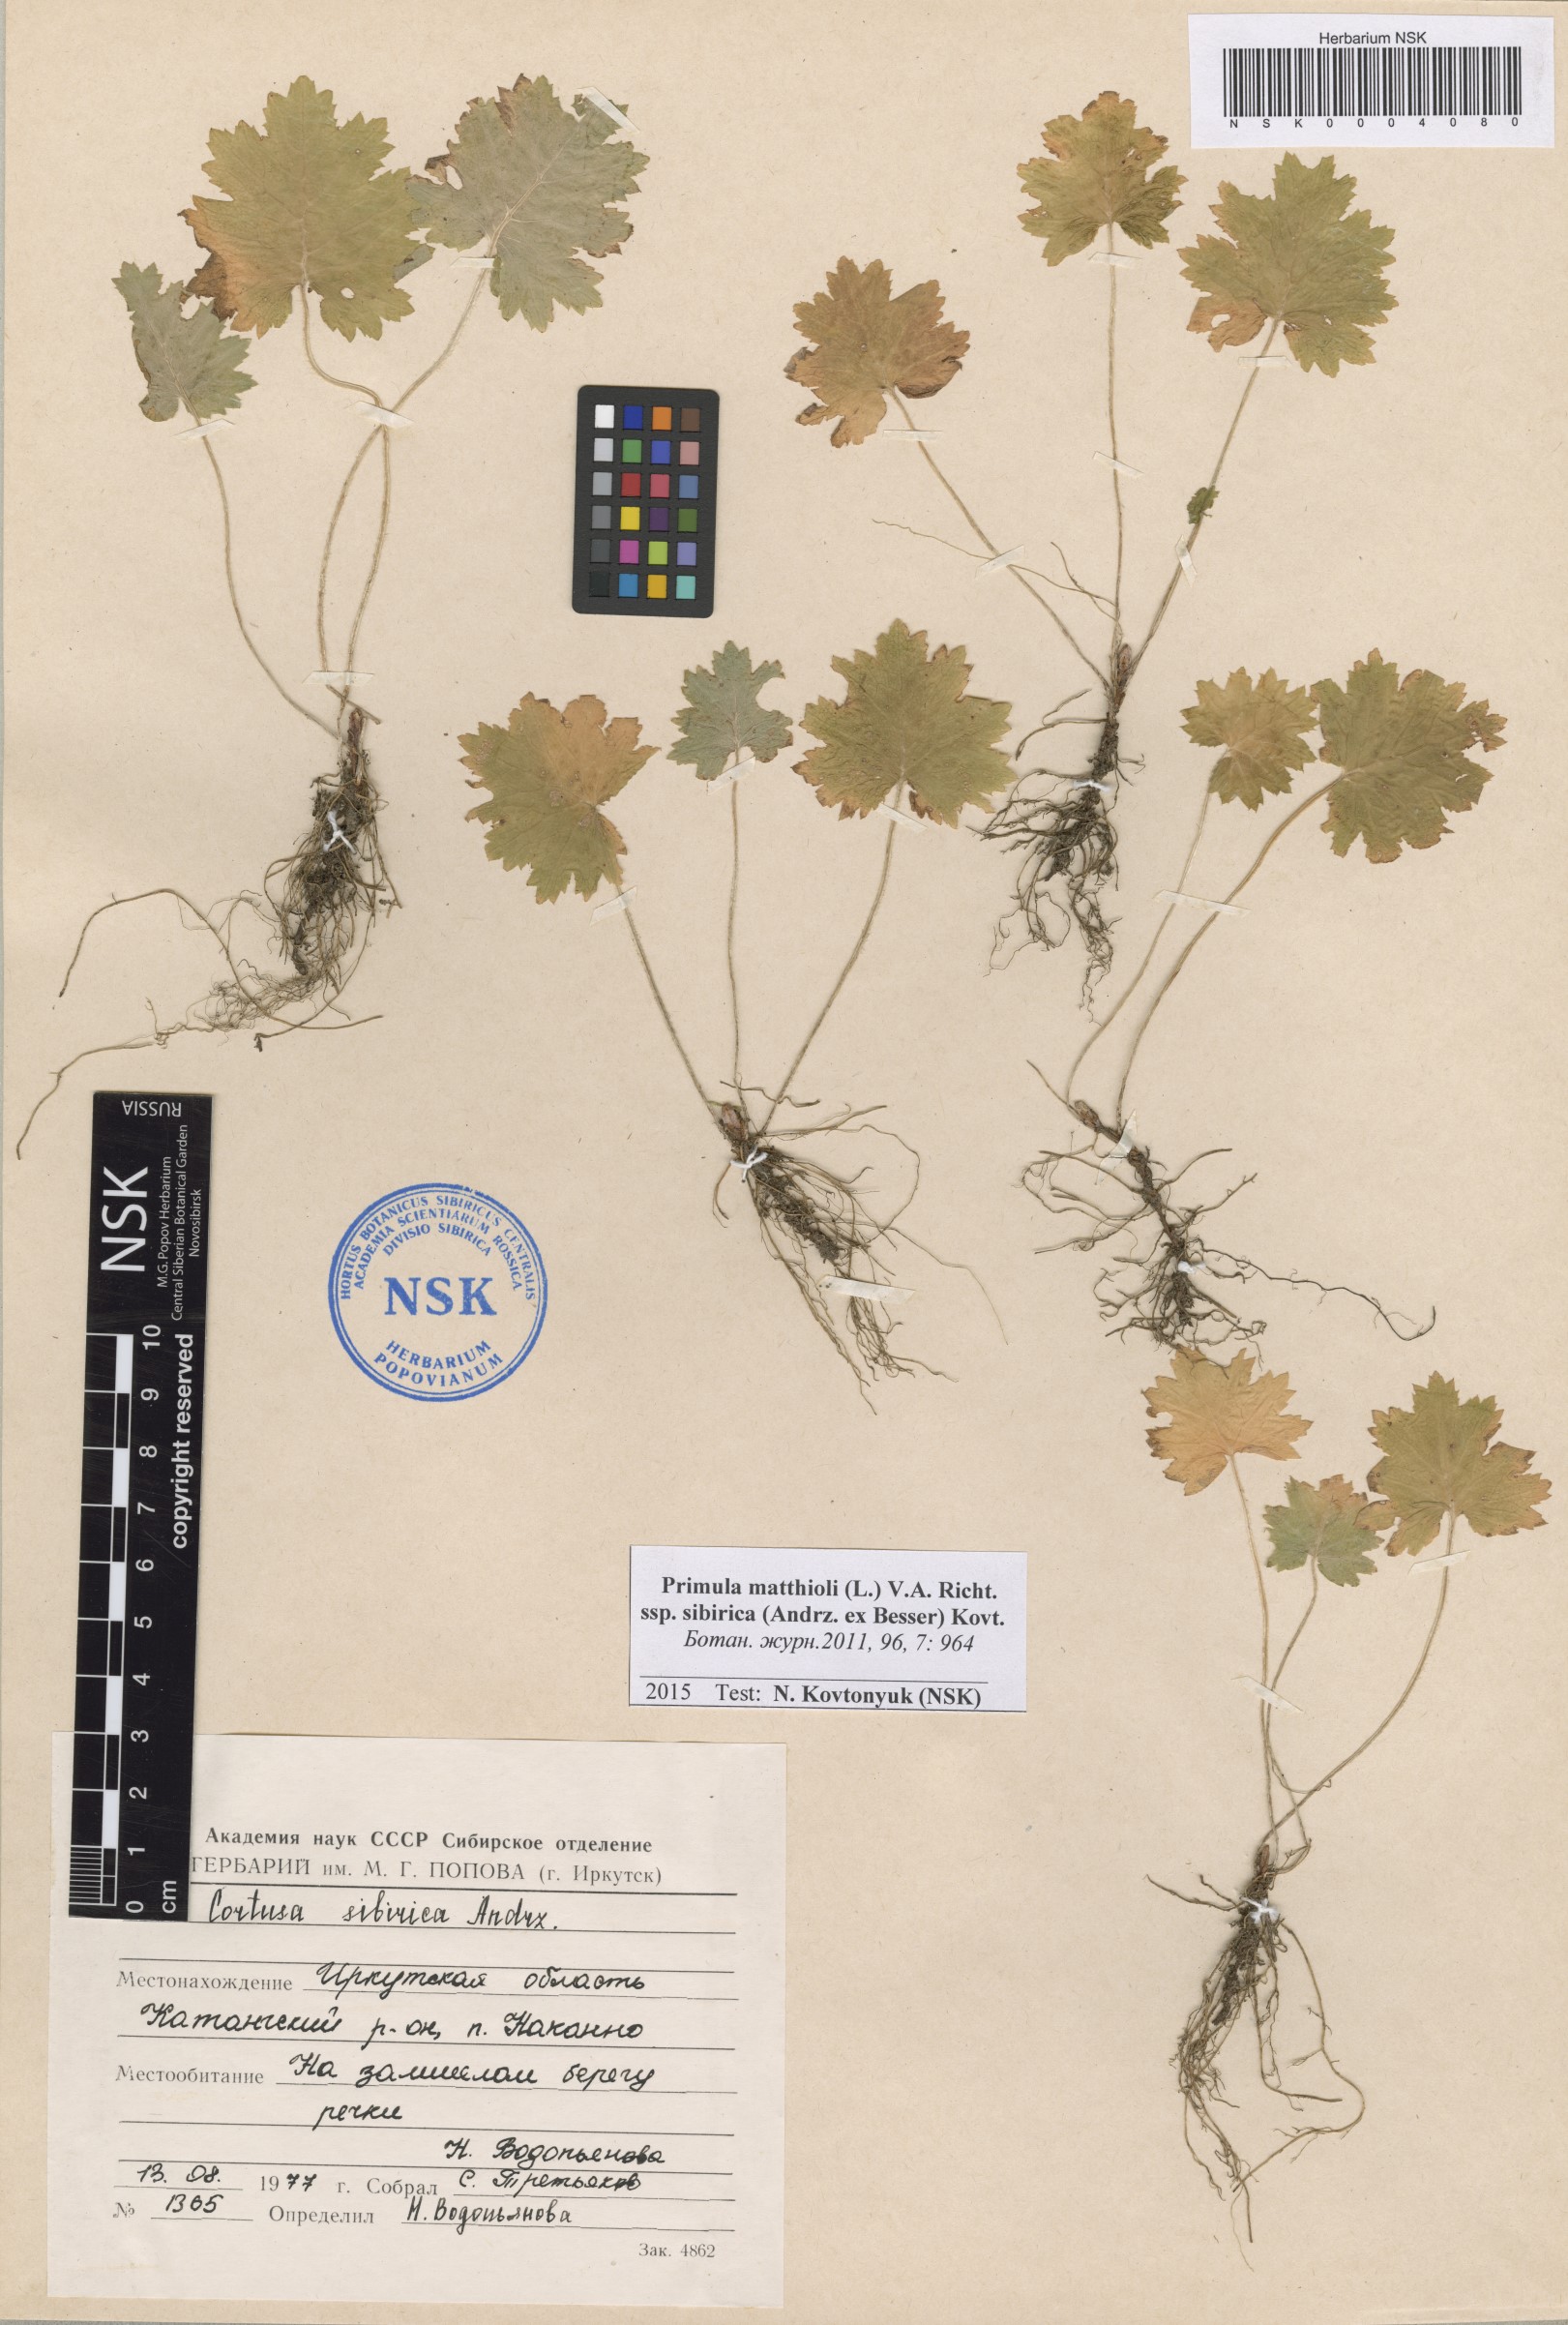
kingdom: Plantae
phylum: Tracheophyta
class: Magnoliopsida
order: Ericales
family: Primulaceae
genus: Primula
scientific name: Primula matthioli
